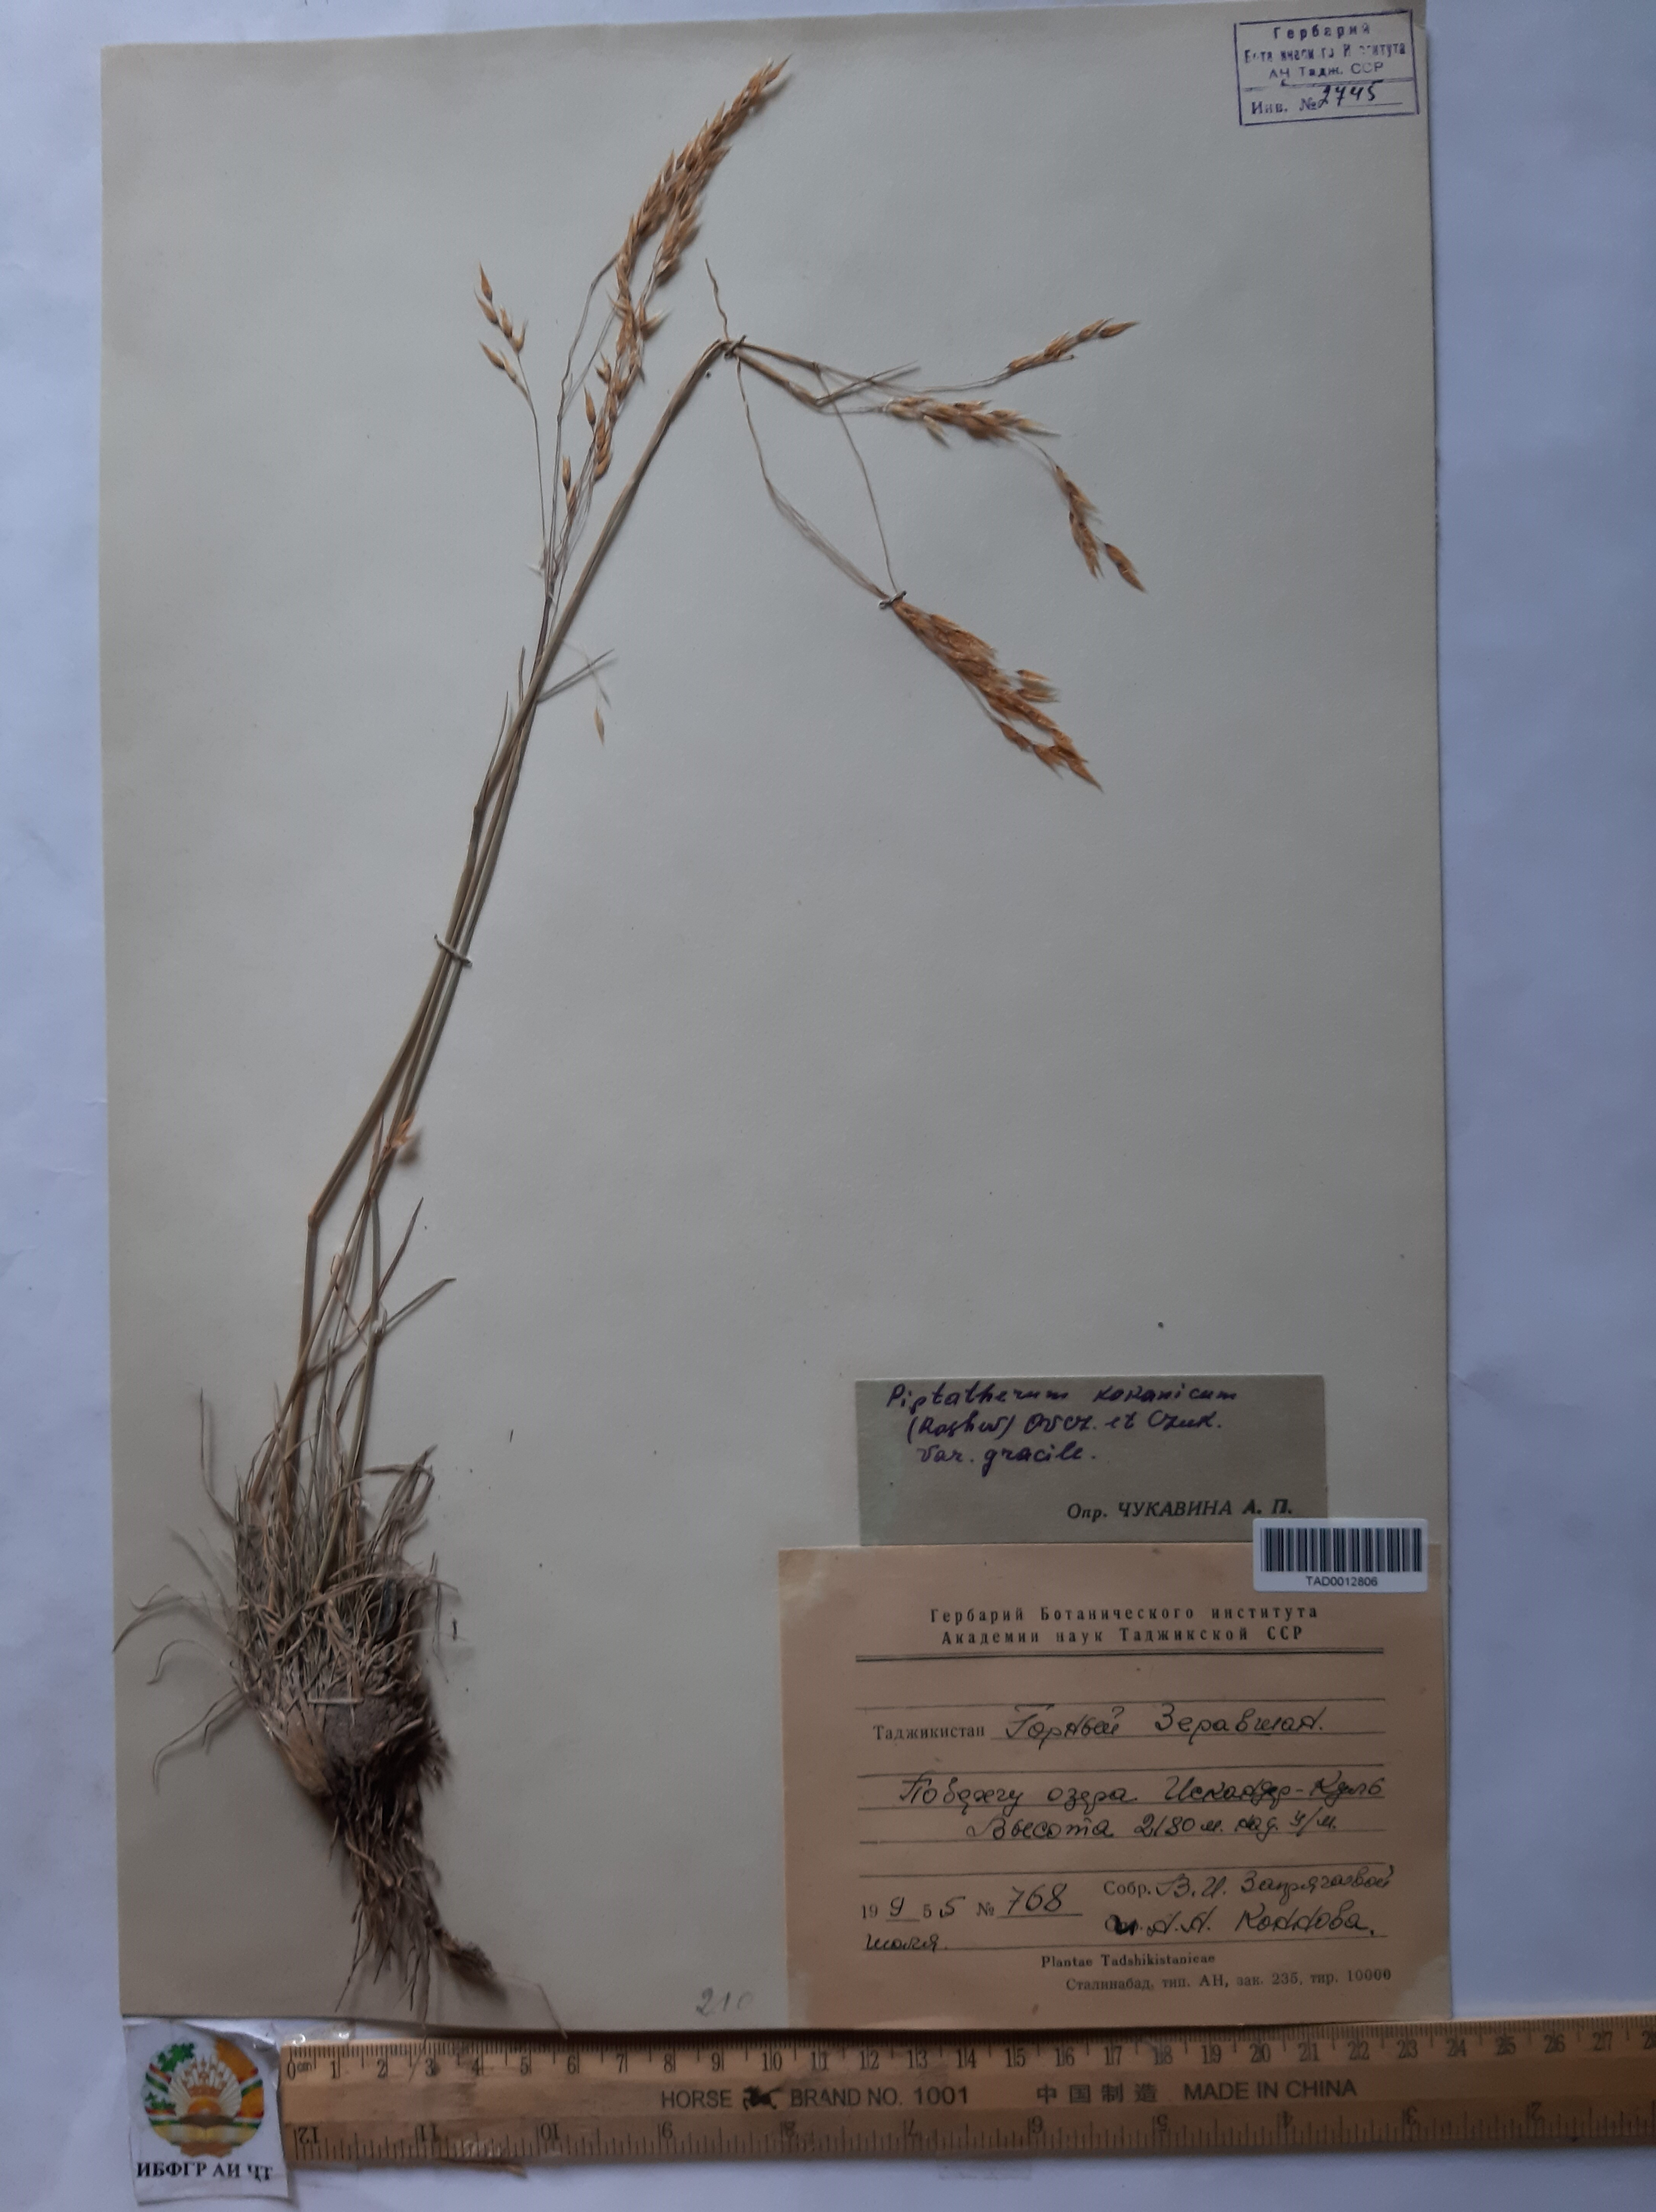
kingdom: Plantae
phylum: Tracheophyta
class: Liliopsida
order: Poales
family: Poaceae
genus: Piptatherum
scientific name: Piptatherum songaricum
